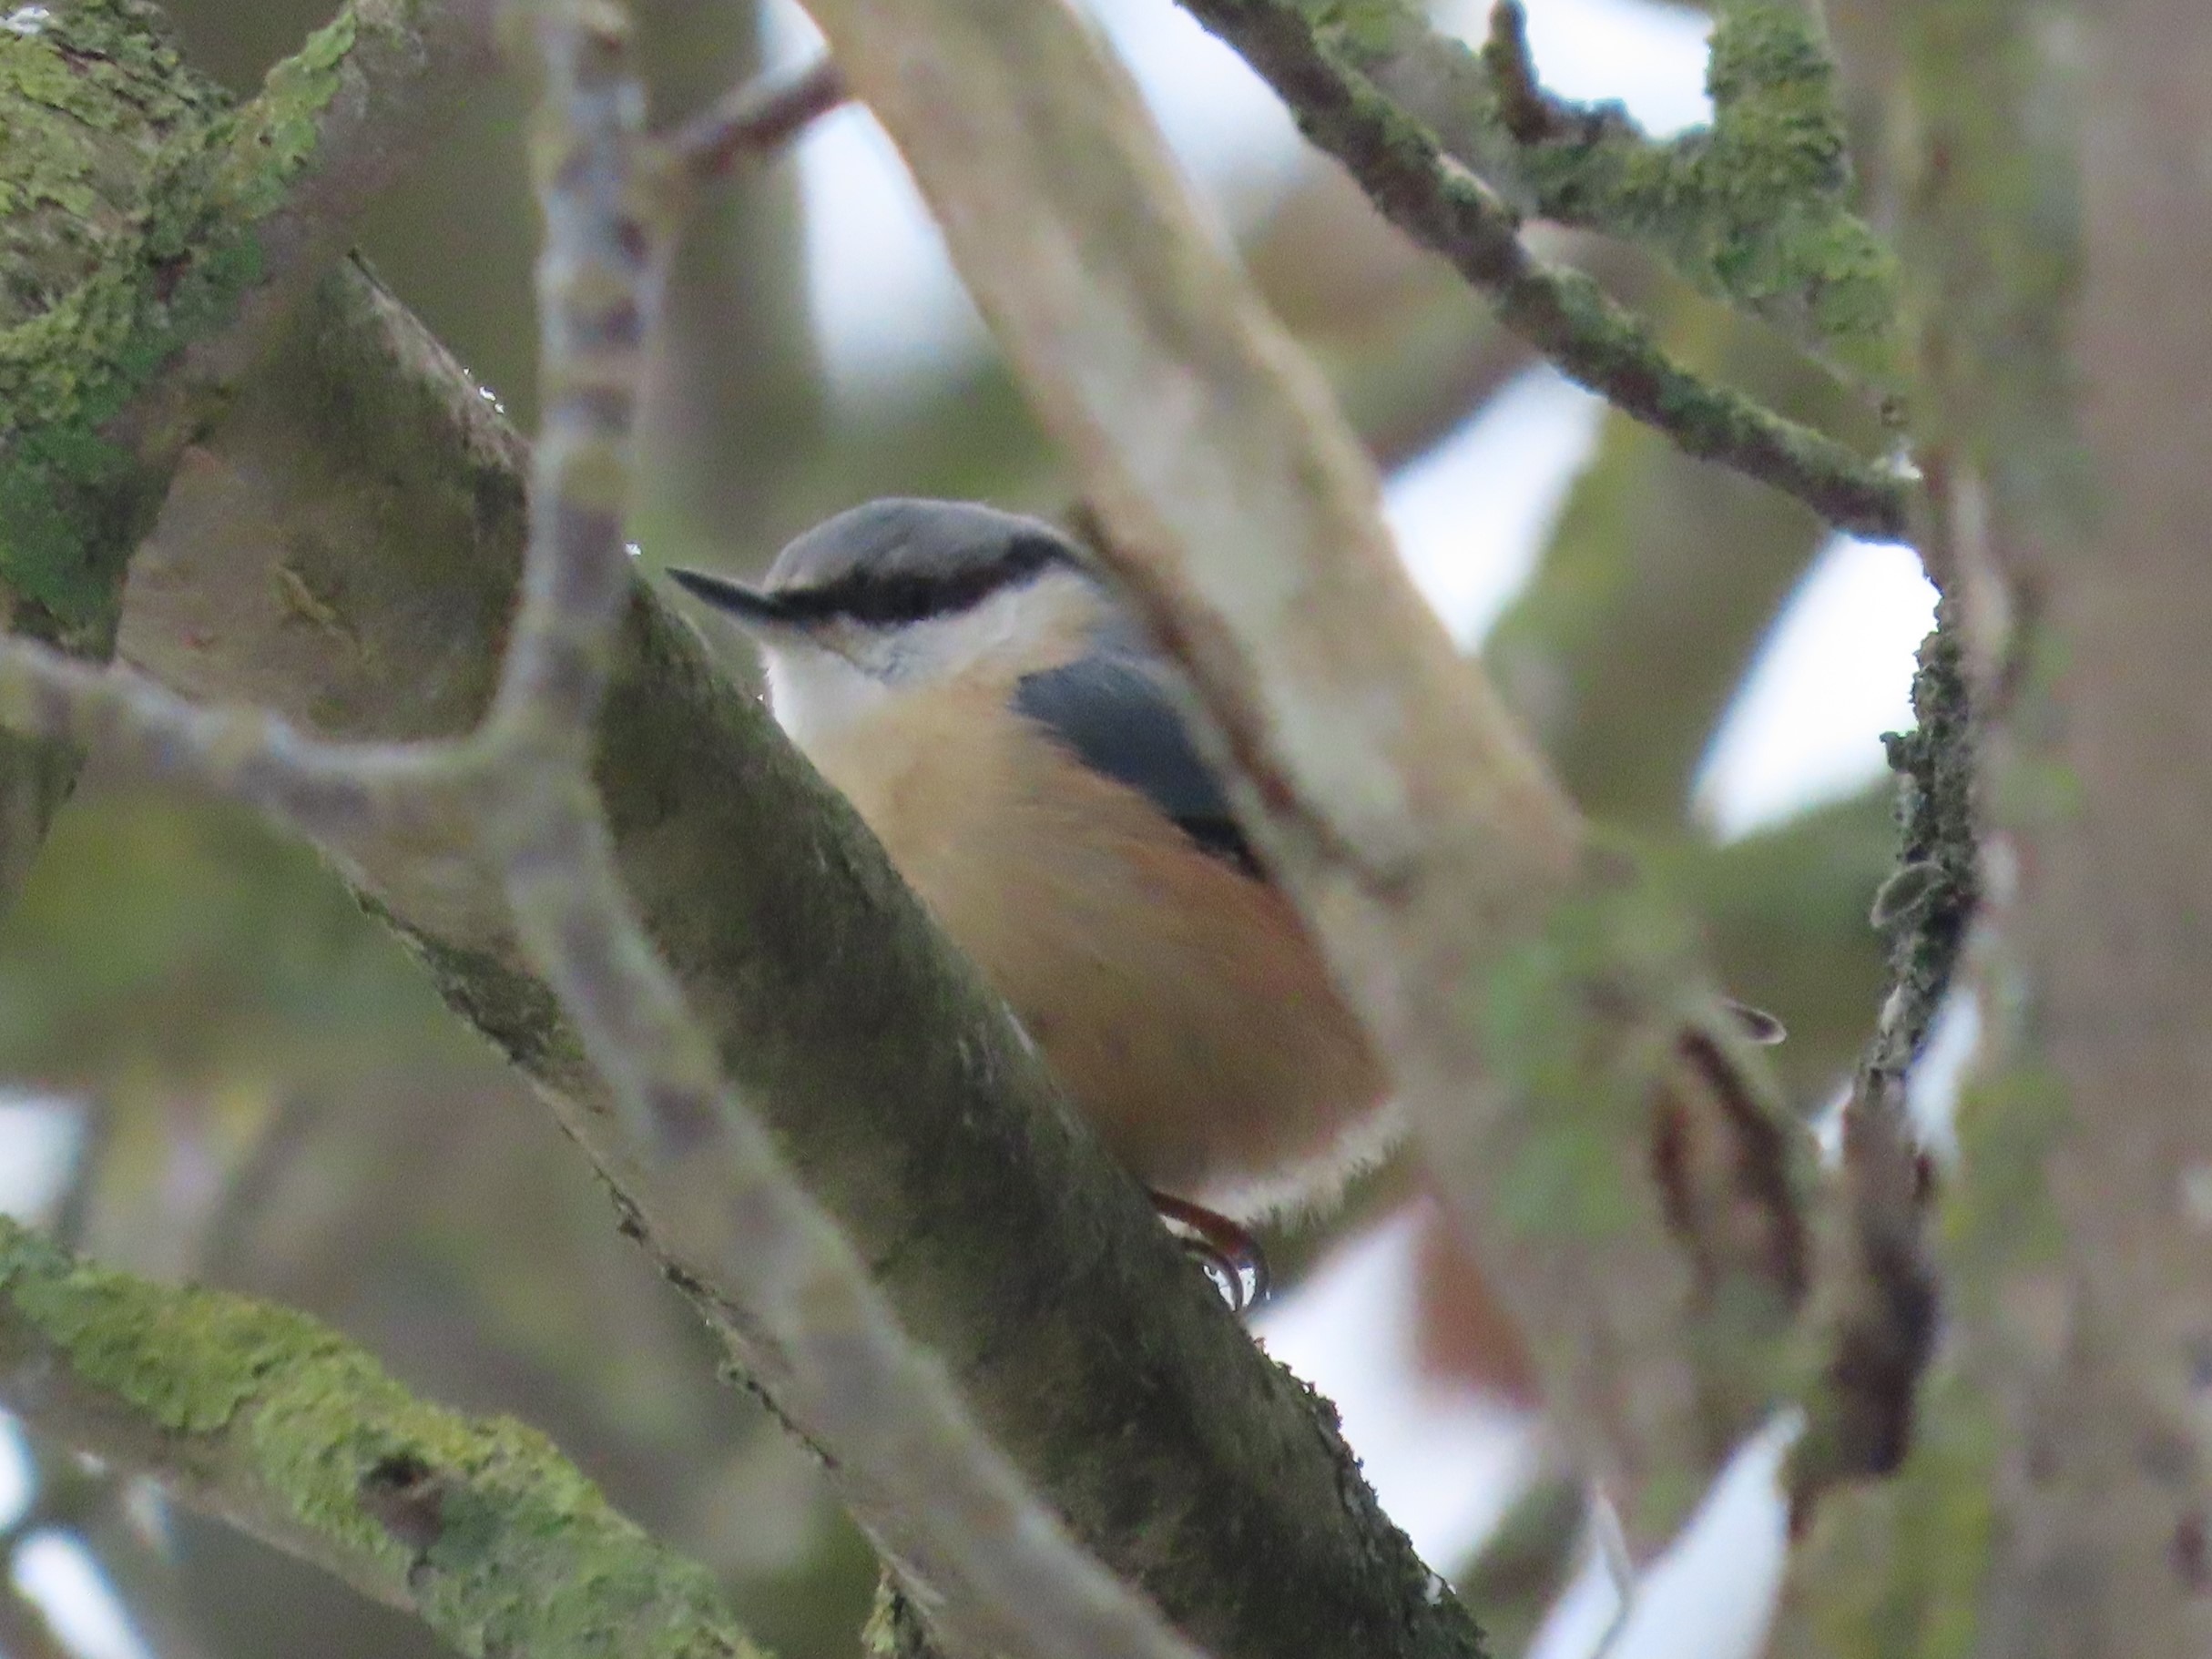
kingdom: Animalia
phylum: Chordata
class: Aves
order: Passeriformes
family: Sittidae
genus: Sitta
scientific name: Sitta europaea
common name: Spætmejse
